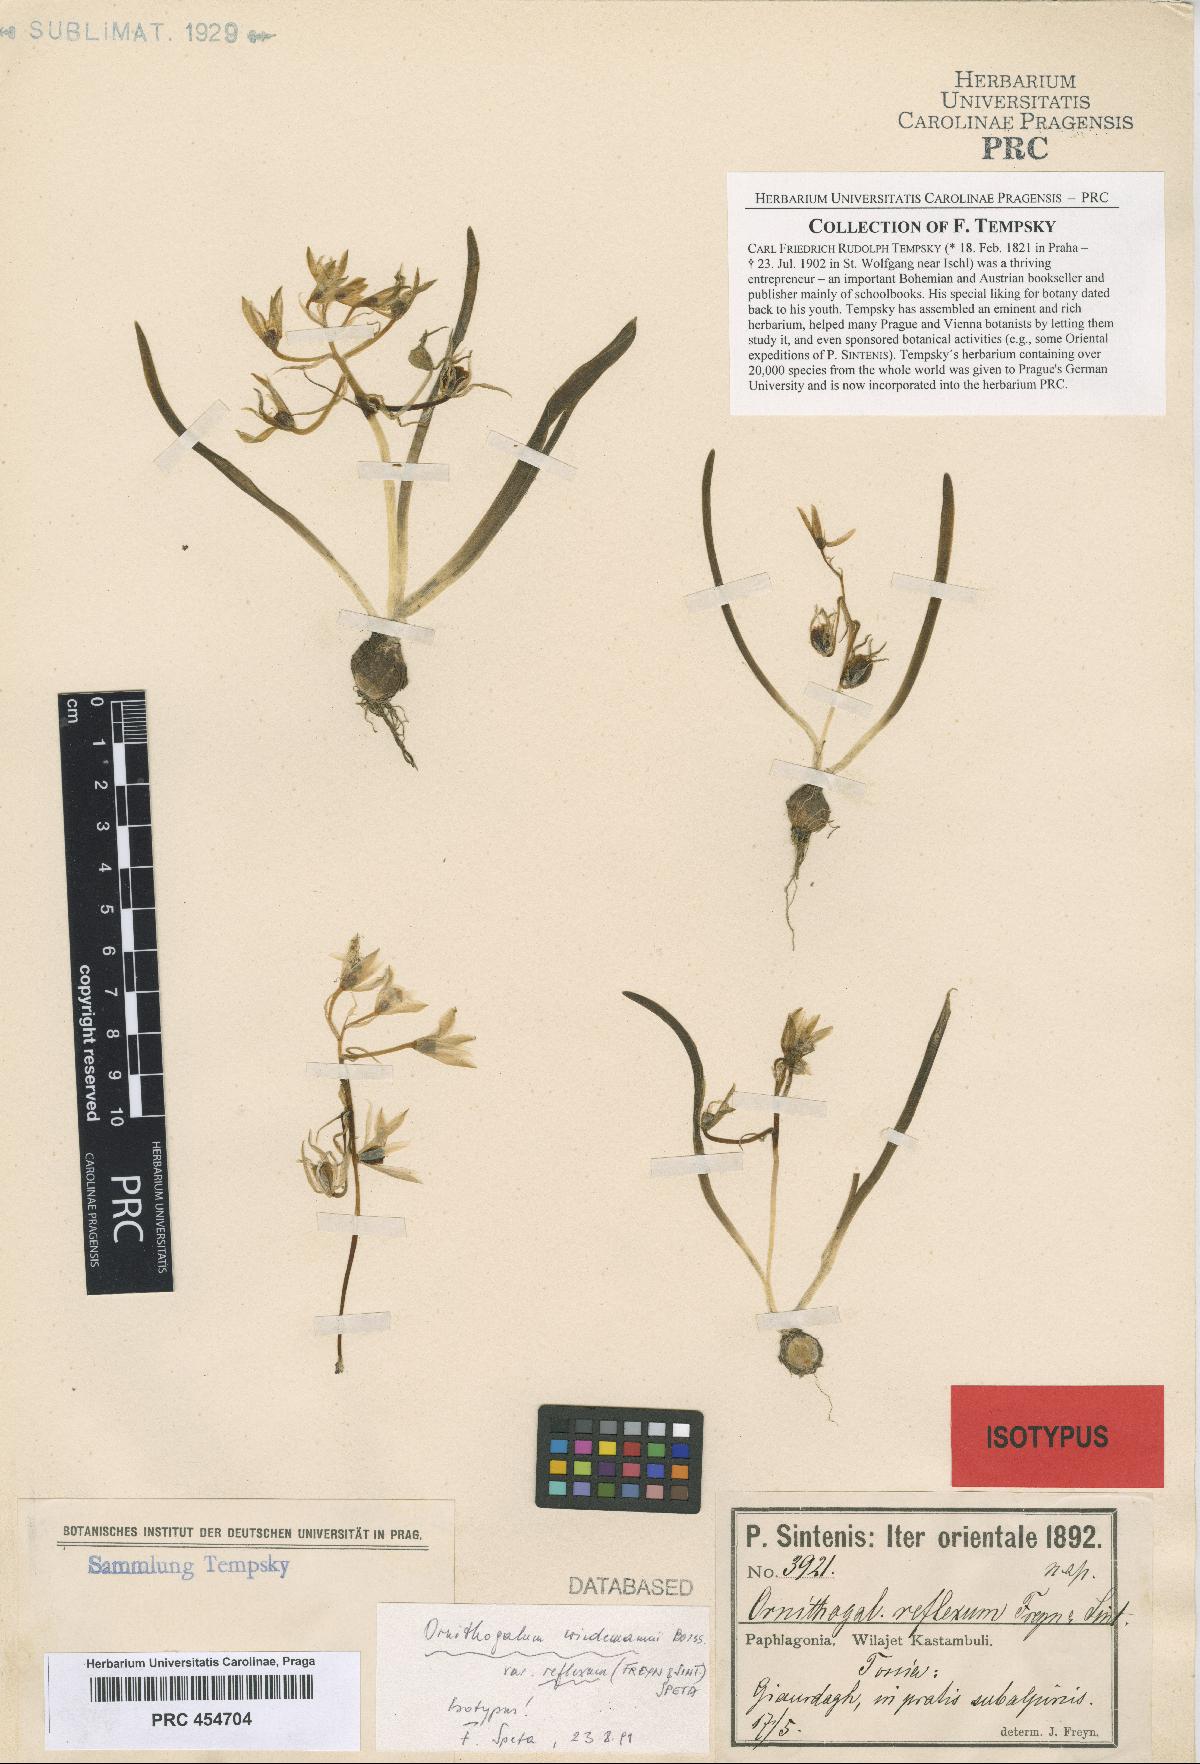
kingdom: Plantae
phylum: Tracheophyta
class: Liliopsida
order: Asparagales
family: Asparagaceae
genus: Ornithogalum
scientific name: Ornithogalum wiedemannii
